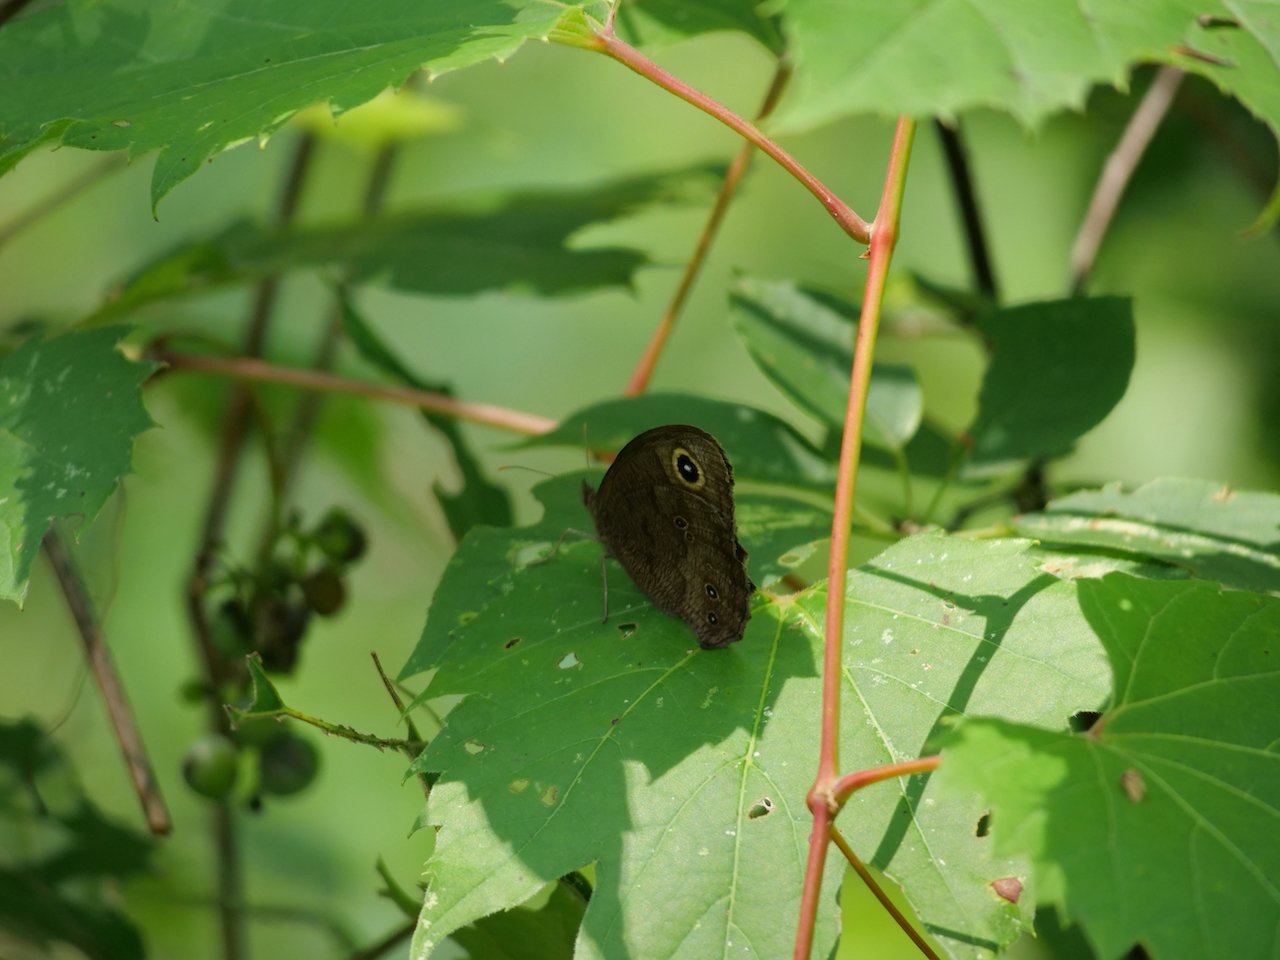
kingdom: Animalia
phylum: Arthropoda
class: Insecta
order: Lepidoptera
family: Nymphalidae
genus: Cercyonis
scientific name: Cercyonis pegala
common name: Common Wood-Nymph
